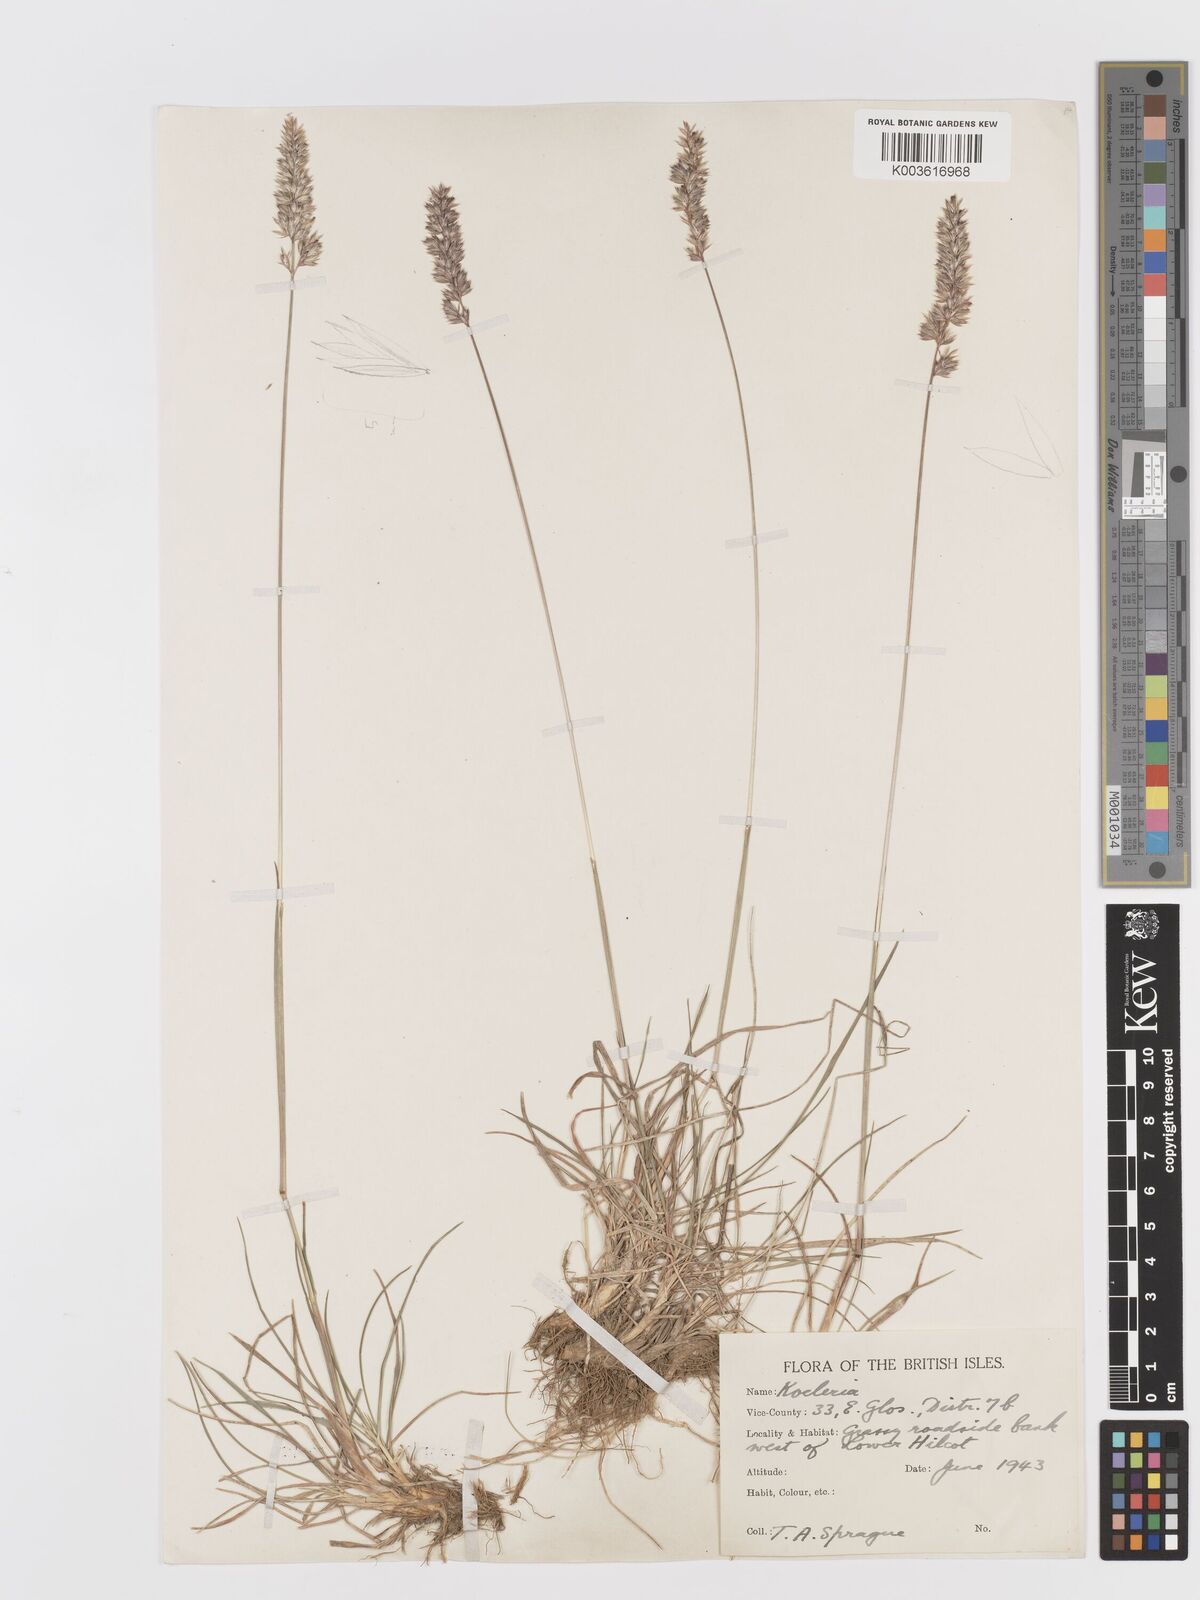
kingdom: Plantae
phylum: Tracheophyta
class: Liliopsida
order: Poales
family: Poaceae
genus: Koeleria
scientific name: Koeleria macrantha
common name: Crested hair-grass
